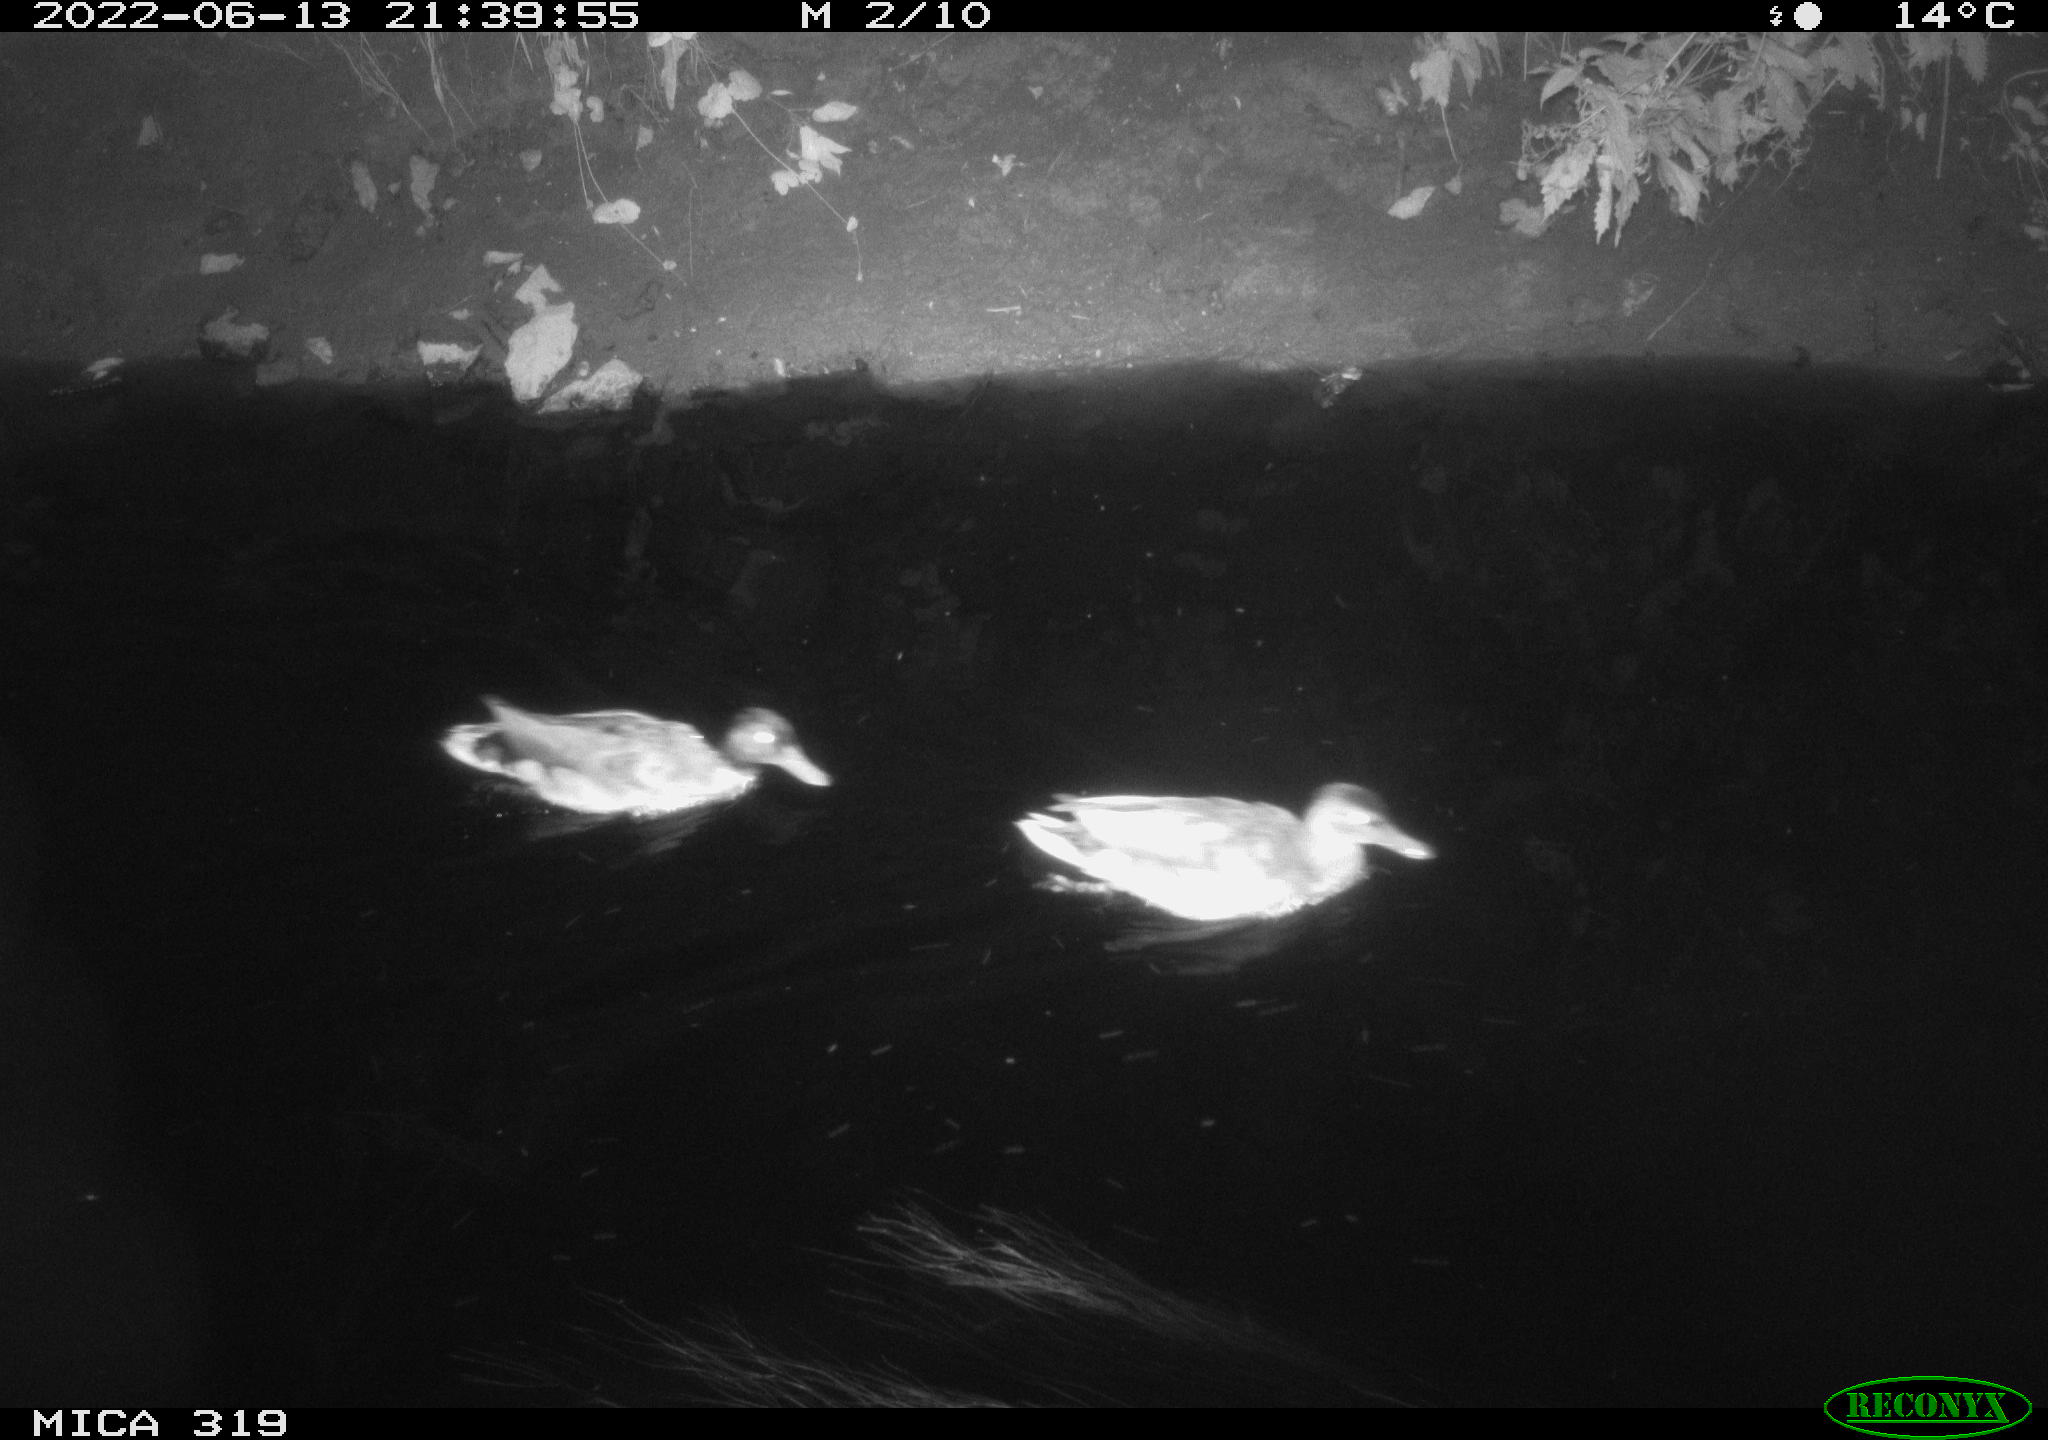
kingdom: Animalia
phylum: Chordata
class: Aves
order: Anseriformes
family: Anatidae
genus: Anas
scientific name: Anas
